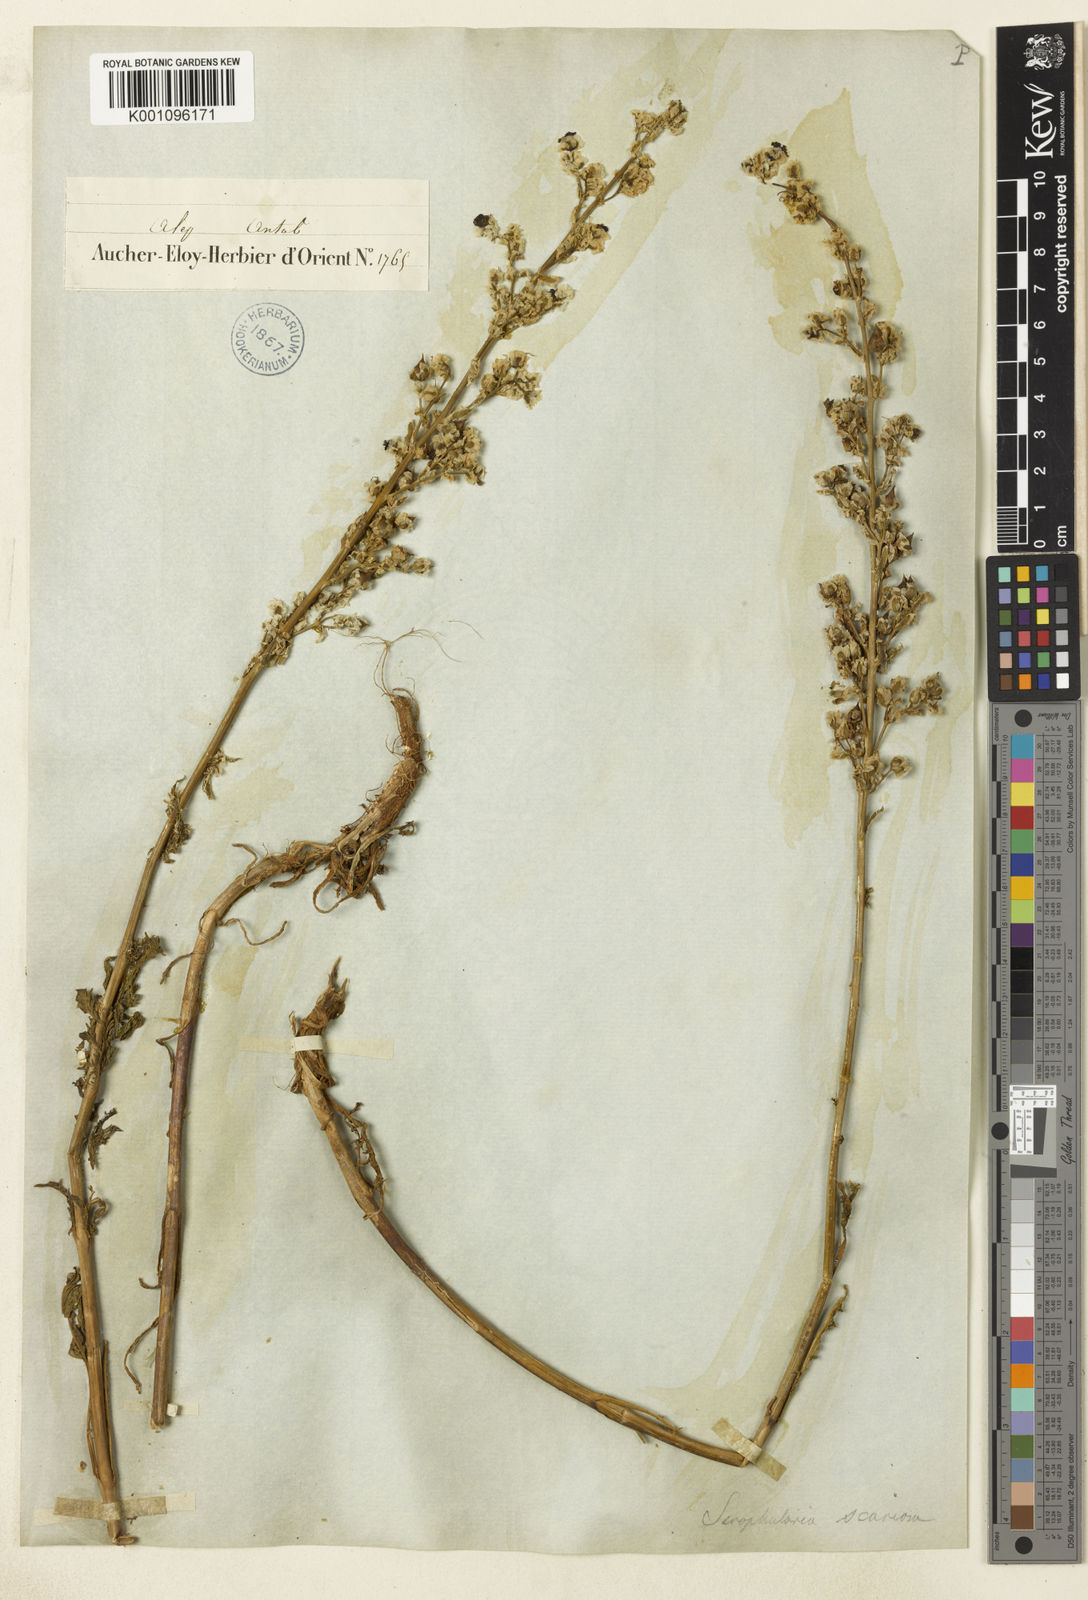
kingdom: Plantae
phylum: Tracheophyta
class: Magnoliopsida
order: Lamiales
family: Scrophulariaceae
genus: Scrophularia
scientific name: Scrophularia scariosa
